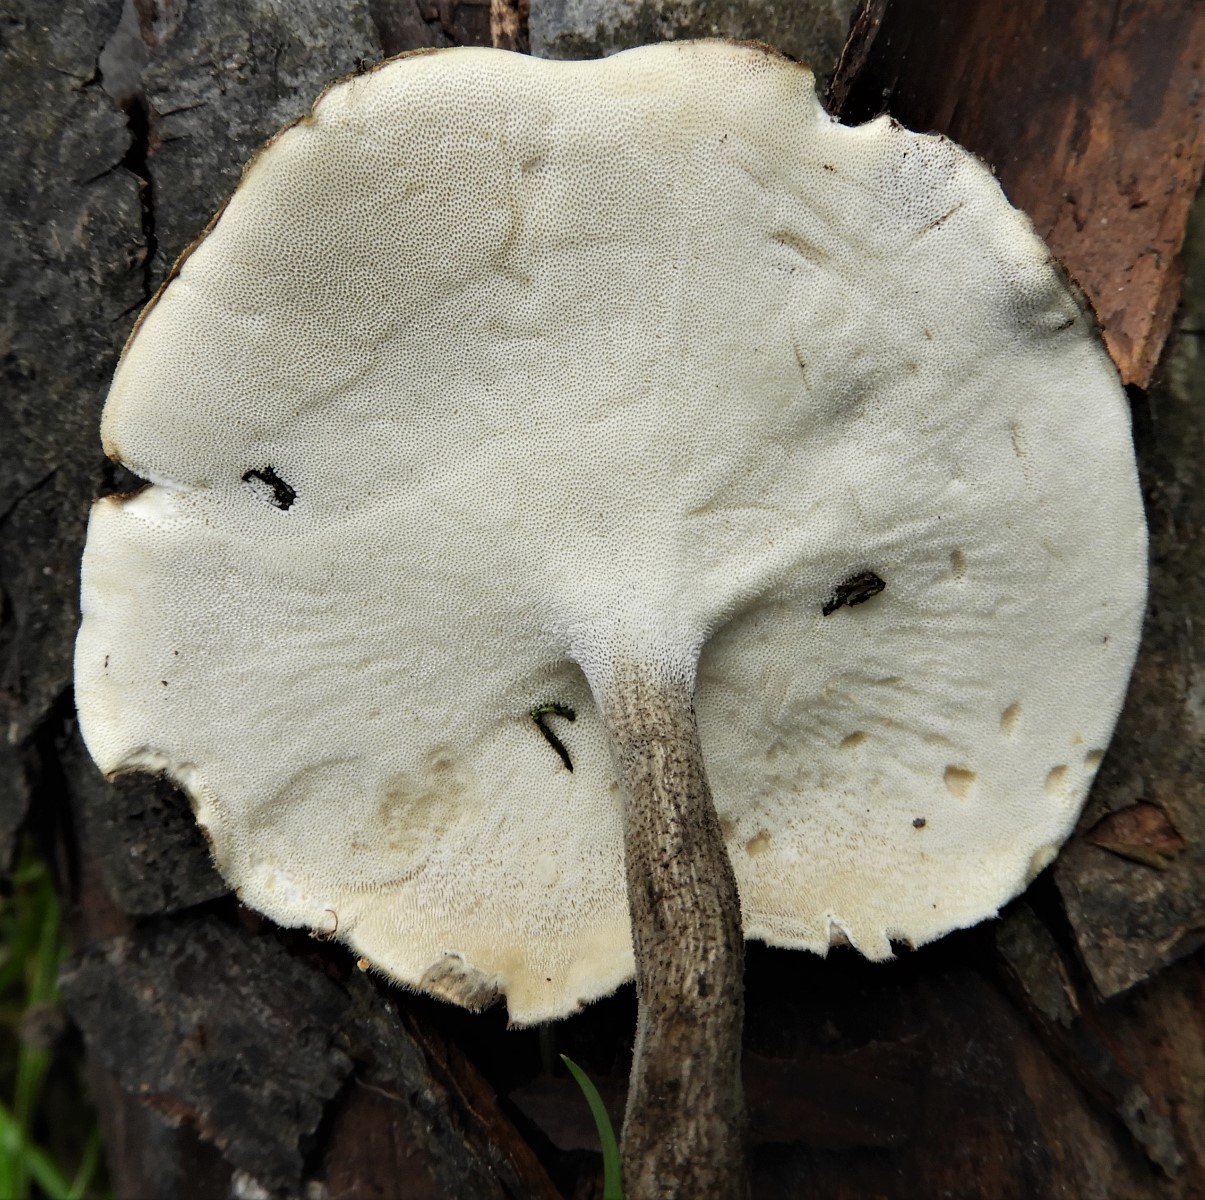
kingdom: Fungi
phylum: Basidiomycota
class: Agaricomycetes
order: Polyporales
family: Polyporaceae
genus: Lentinus
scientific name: Lentinus substrictus
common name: forårs-stilkporesvamp
